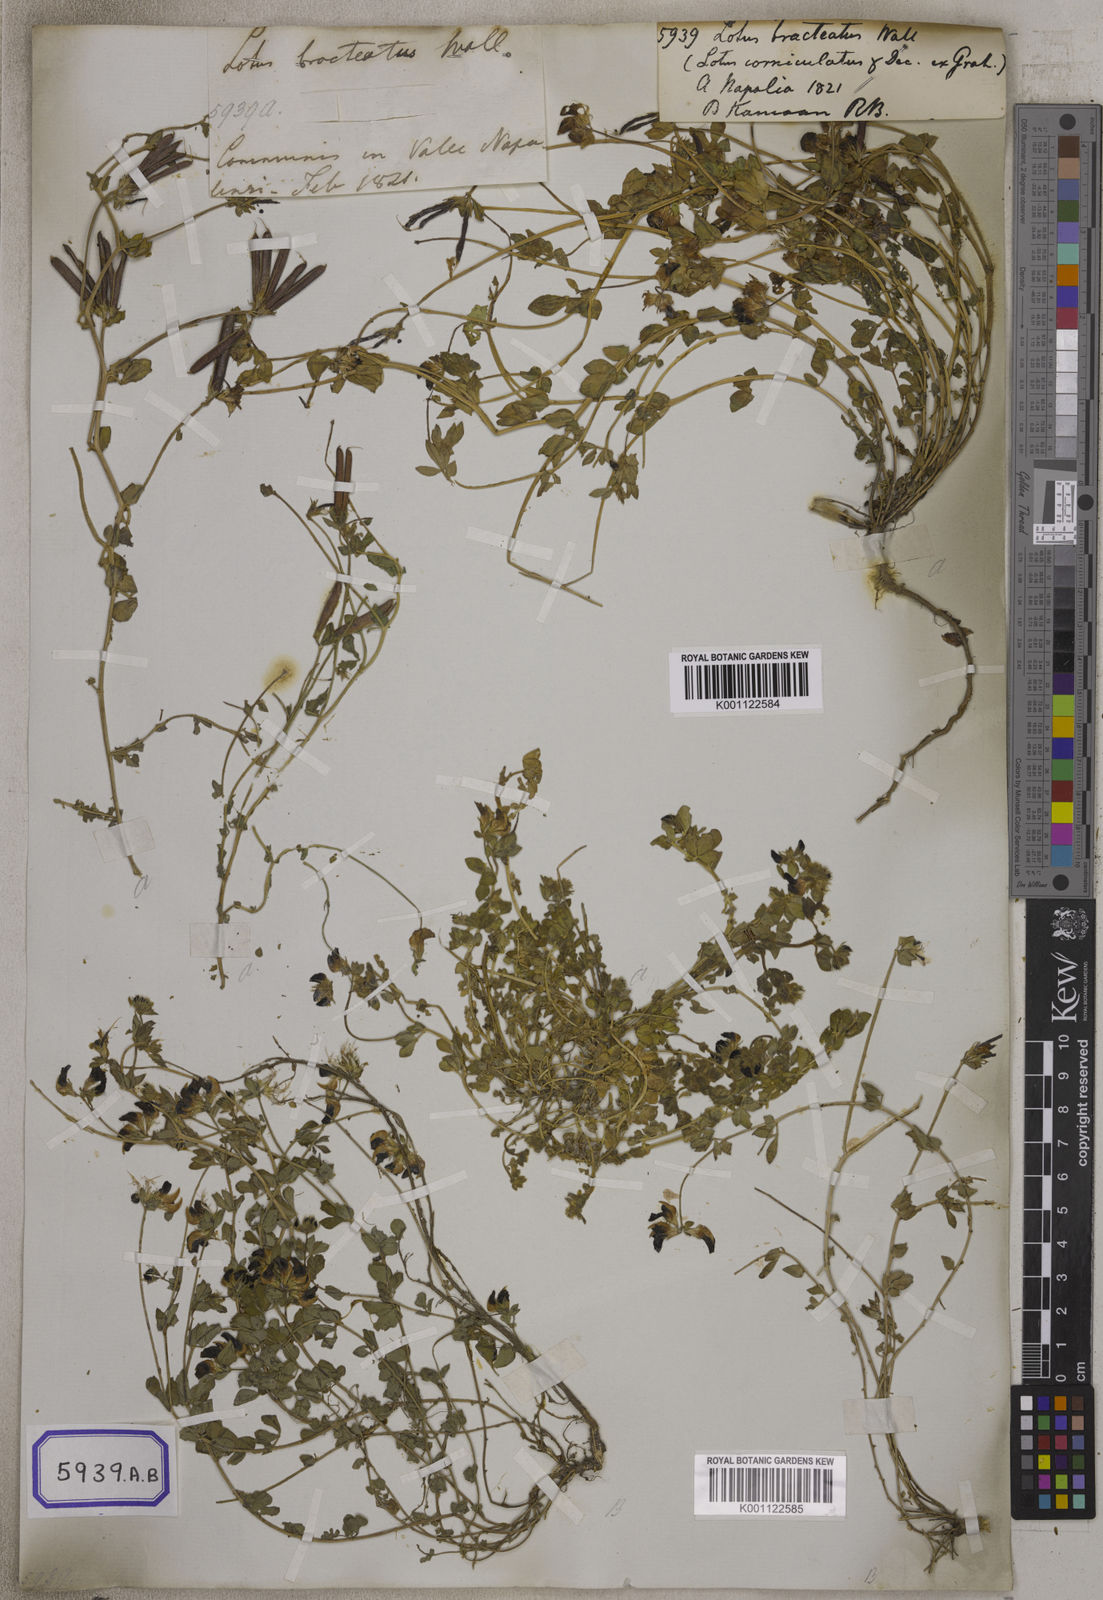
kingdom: Plantae
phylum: Tracheophyta
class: Magnoliopsida
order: Fabales
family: Fabaceae
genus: Lotus
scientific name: Lotus corniculatus
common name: Common bird's-foot-trefoil
